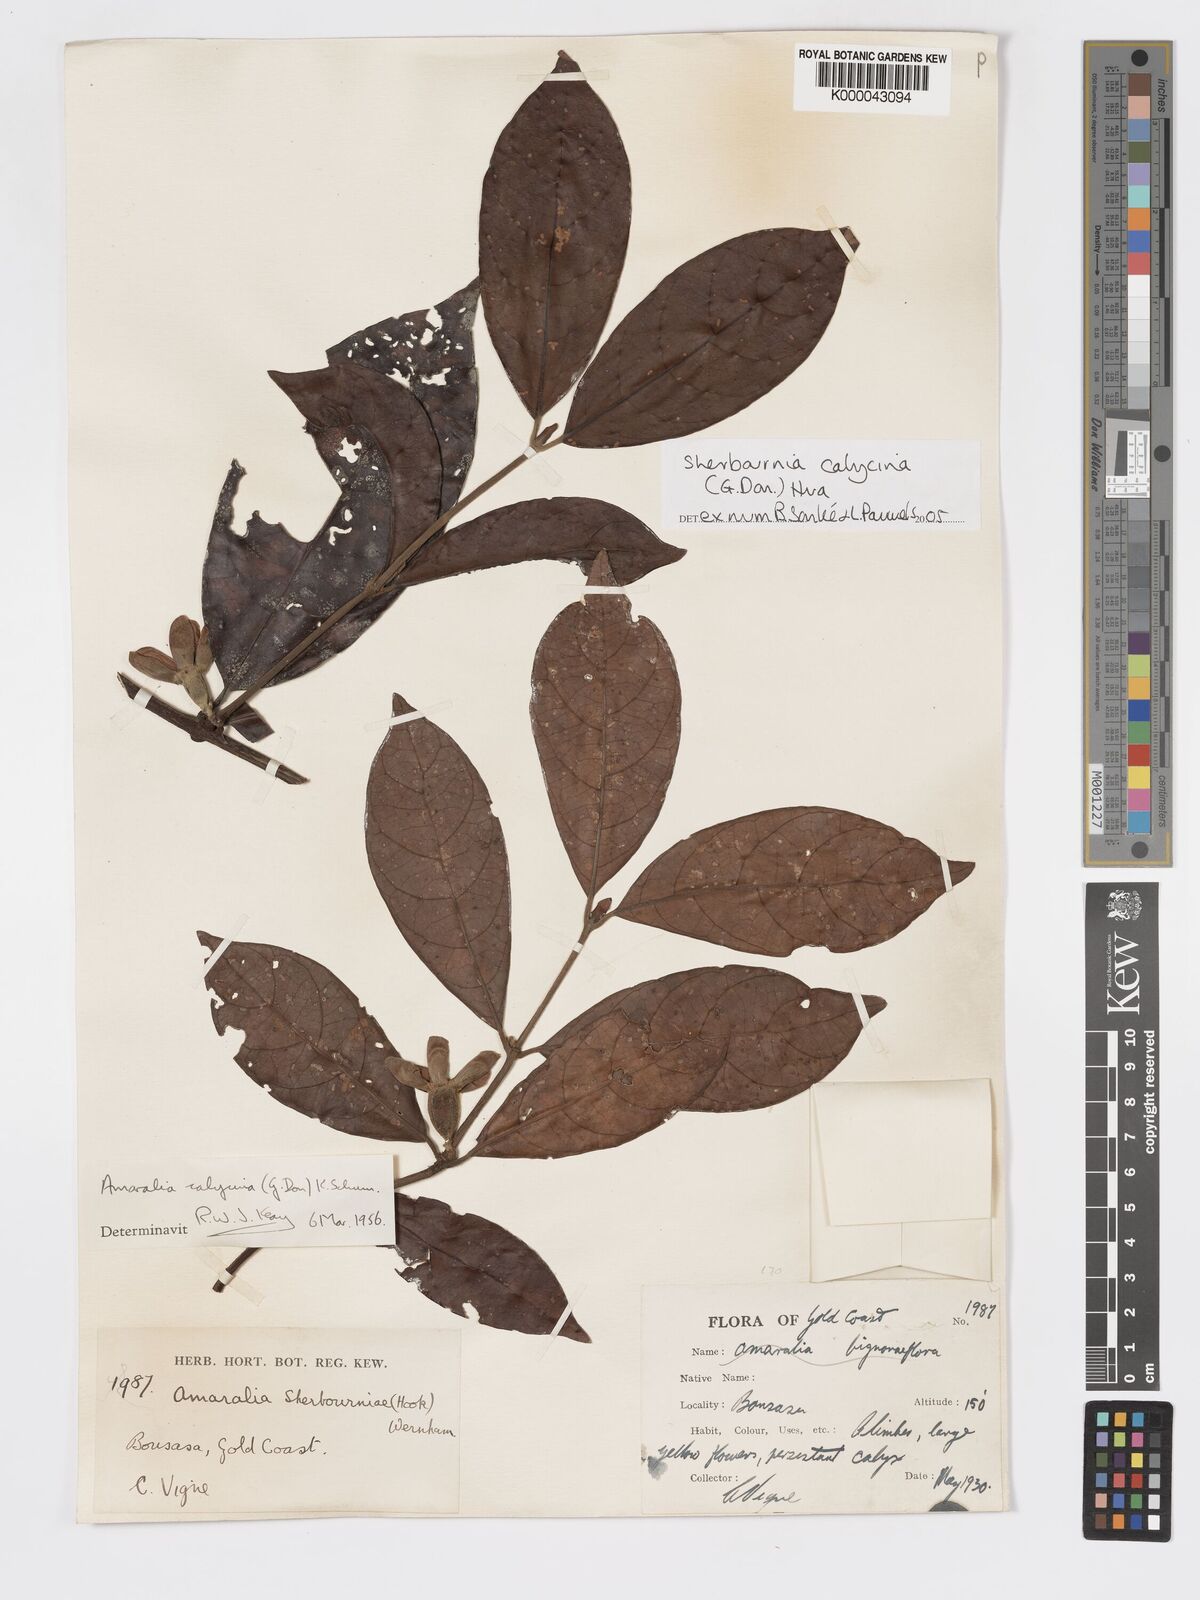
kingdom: Plantae
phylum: Tracheophyta
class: Magnoliopsida
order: Gentianales
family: Rubiaceae
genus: Sherbournia
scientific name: Sherbournia calycina
